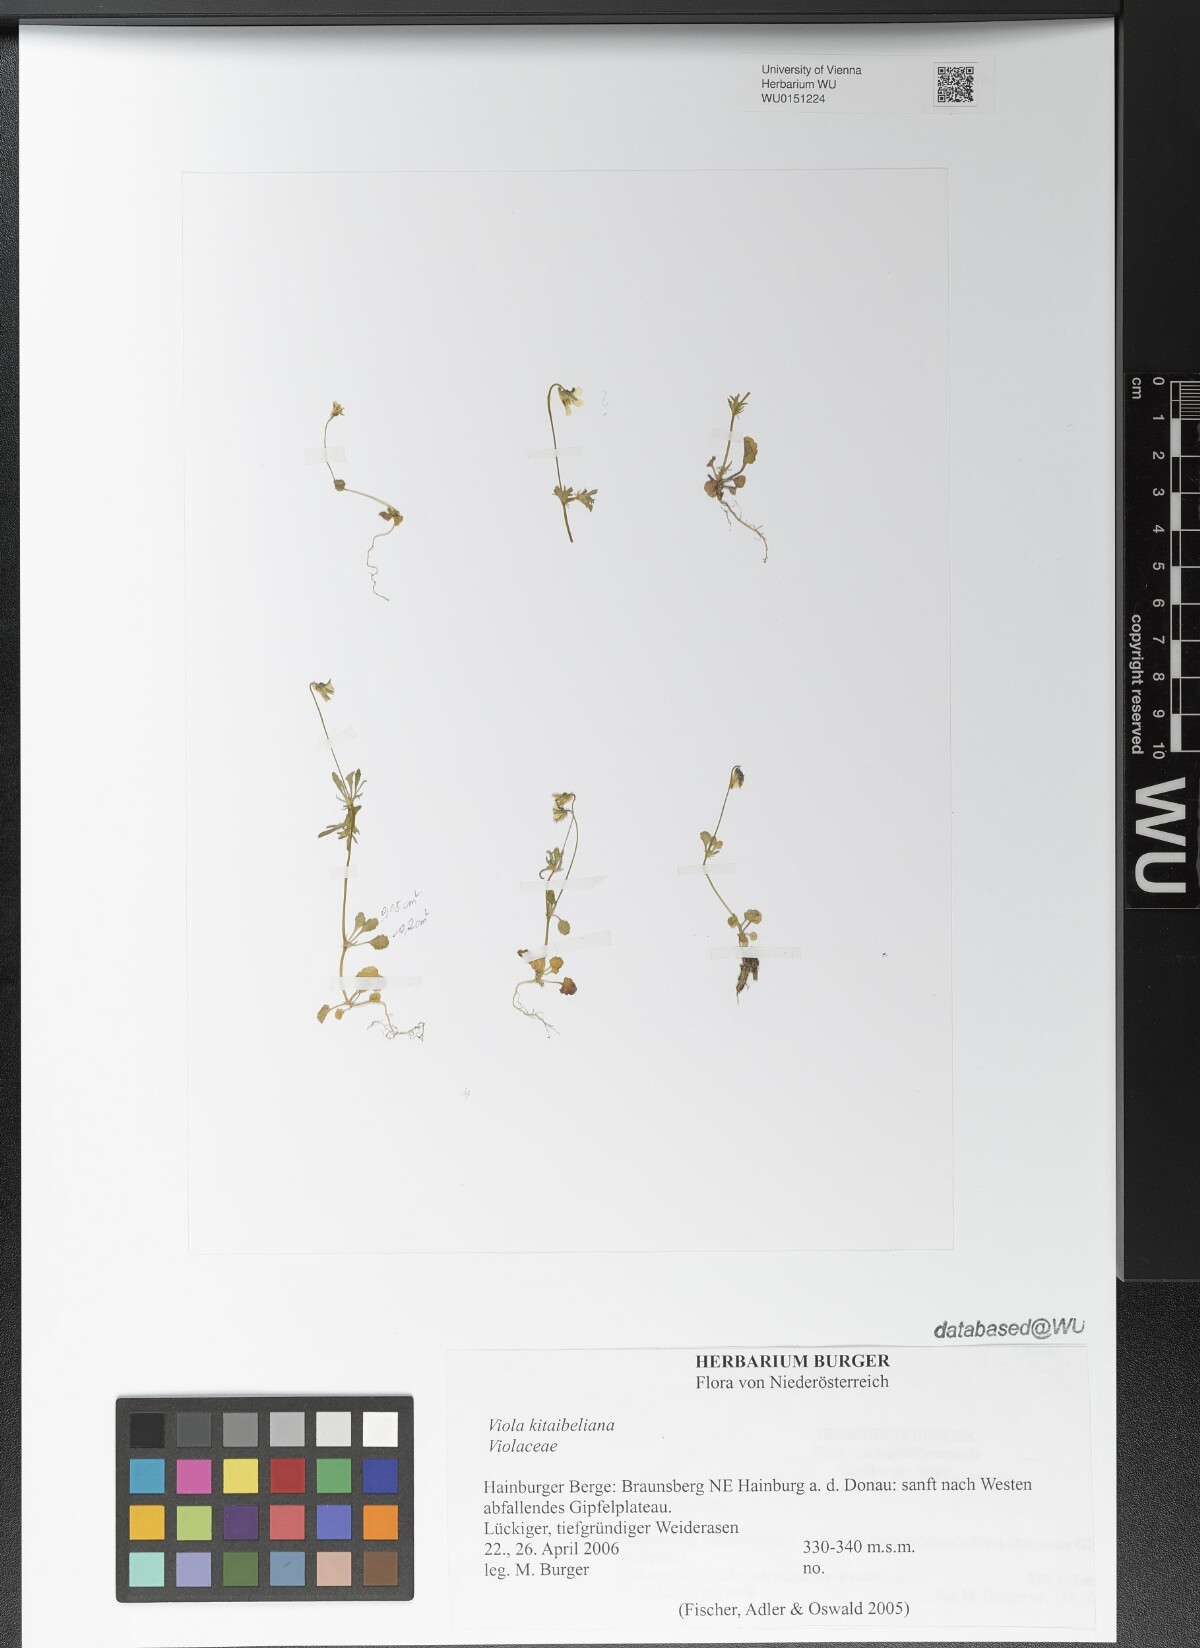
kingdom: Plantae
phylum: Tracheophyta
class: Magnoliopsida
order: Malpighiales
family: Violaceae
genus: Viola
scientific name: Viola kitaibeliana
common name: Dwarf pansy
